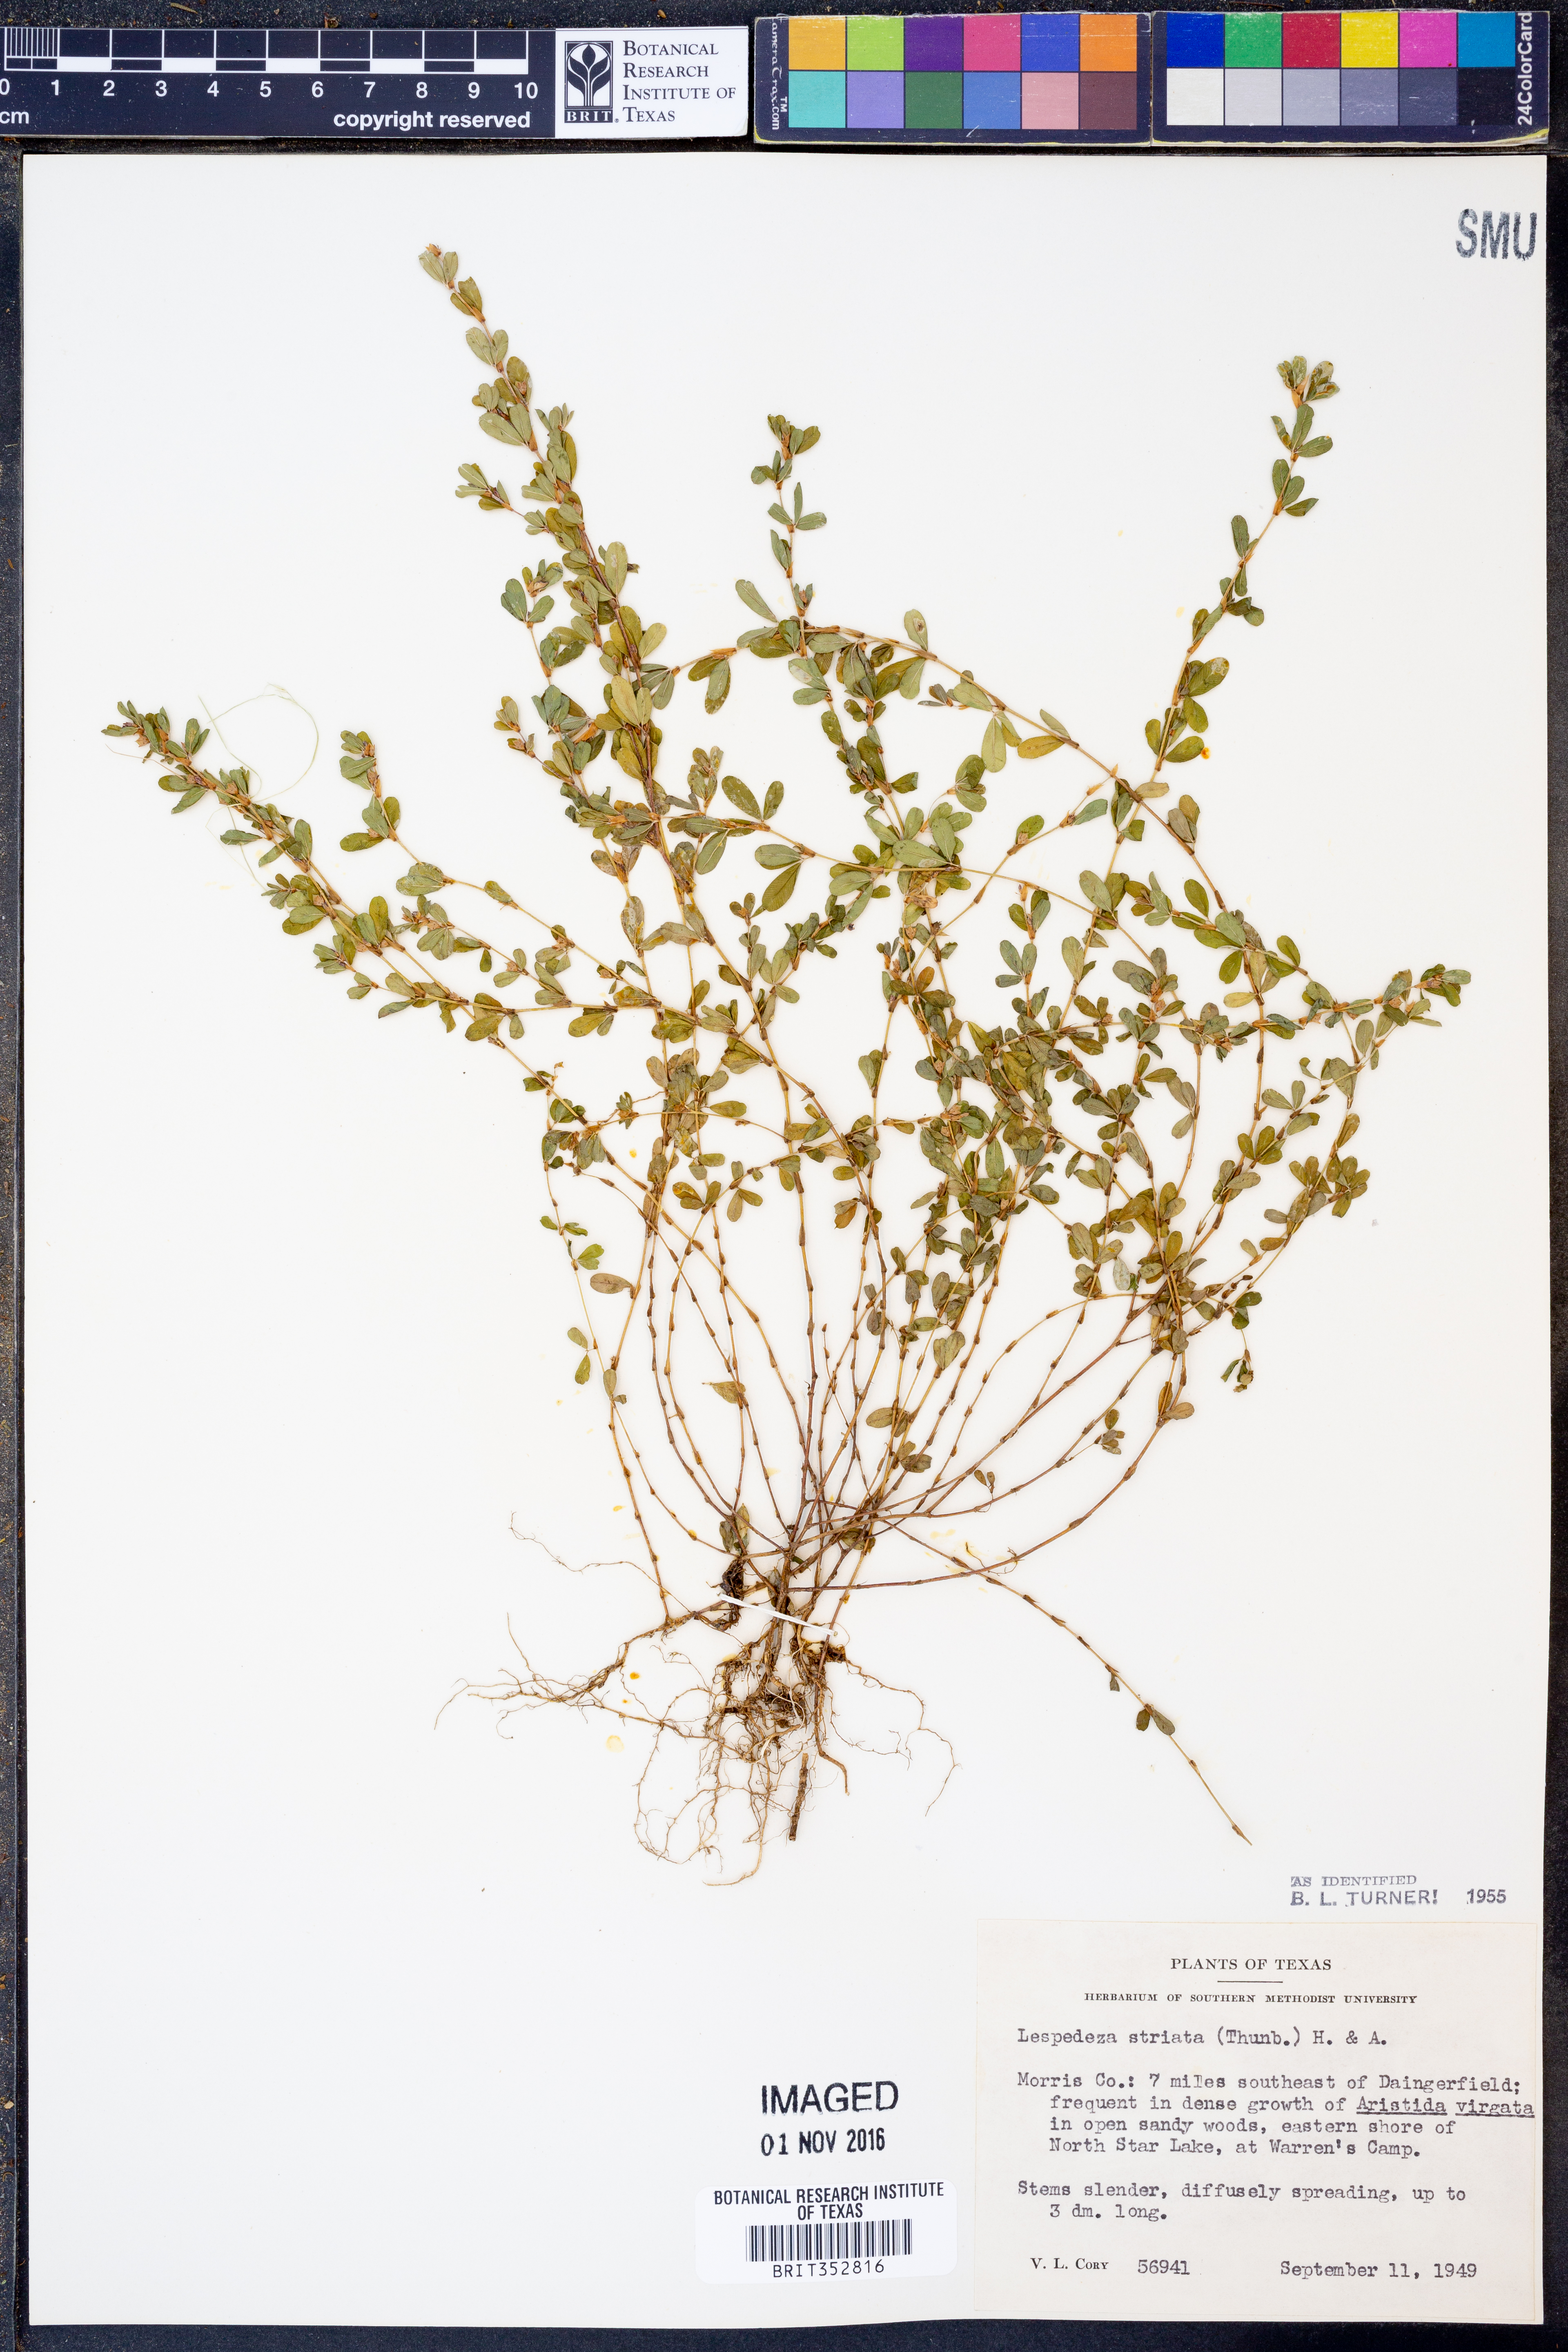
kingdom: Plantae
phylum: Tracheophyta
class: Magnoliopsida
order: Fabales
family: Fabaceae
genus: Kummerowia
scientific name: Kummerowia striata
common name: Japanese clover
